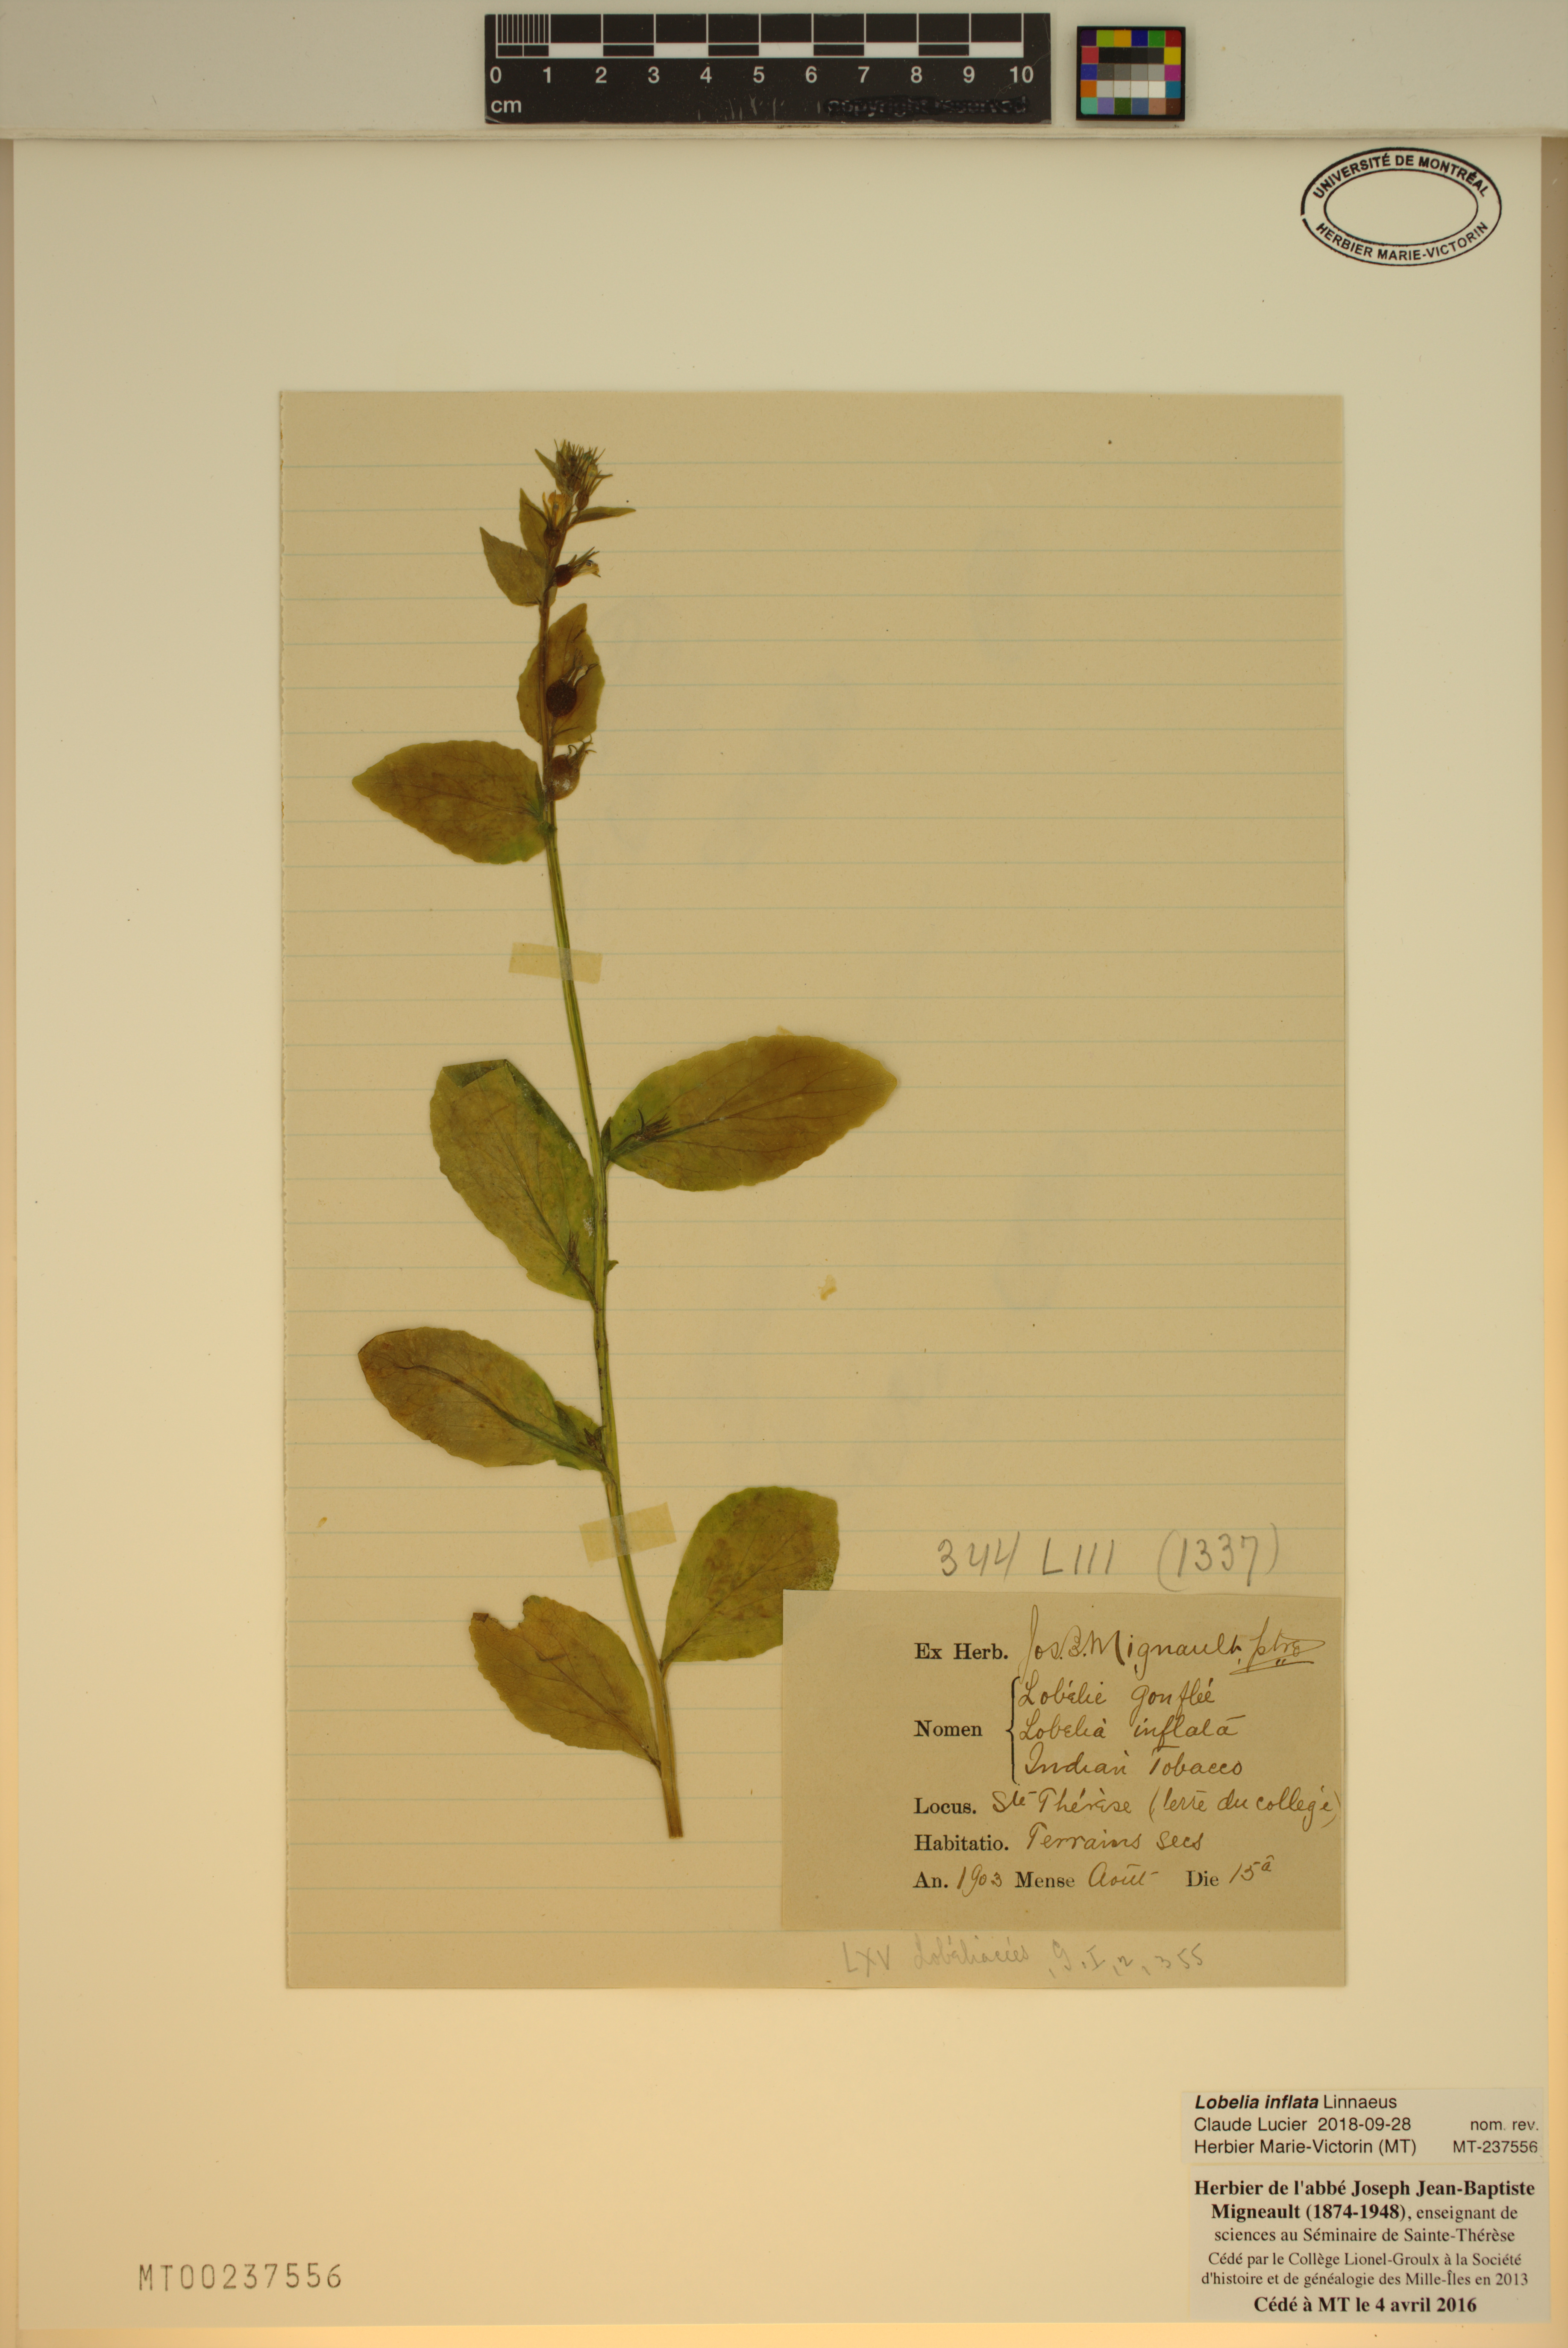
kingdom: Plantae
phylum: Tracheophyta
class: Magnoliopsida
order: Asterales
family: Campanulaceae
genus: Lobelia
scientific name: Lobelia inflata
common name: Indian tobacco
